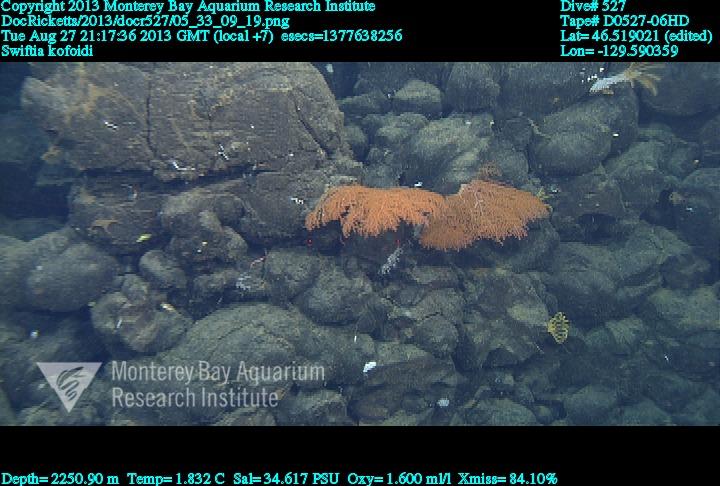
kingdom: Animalia
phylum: Cnidaria
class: Anthozoa
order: Malacalcyonacea
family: Gorgoniidae
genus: Callistephanus
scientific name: Callistephanus kofoidi
